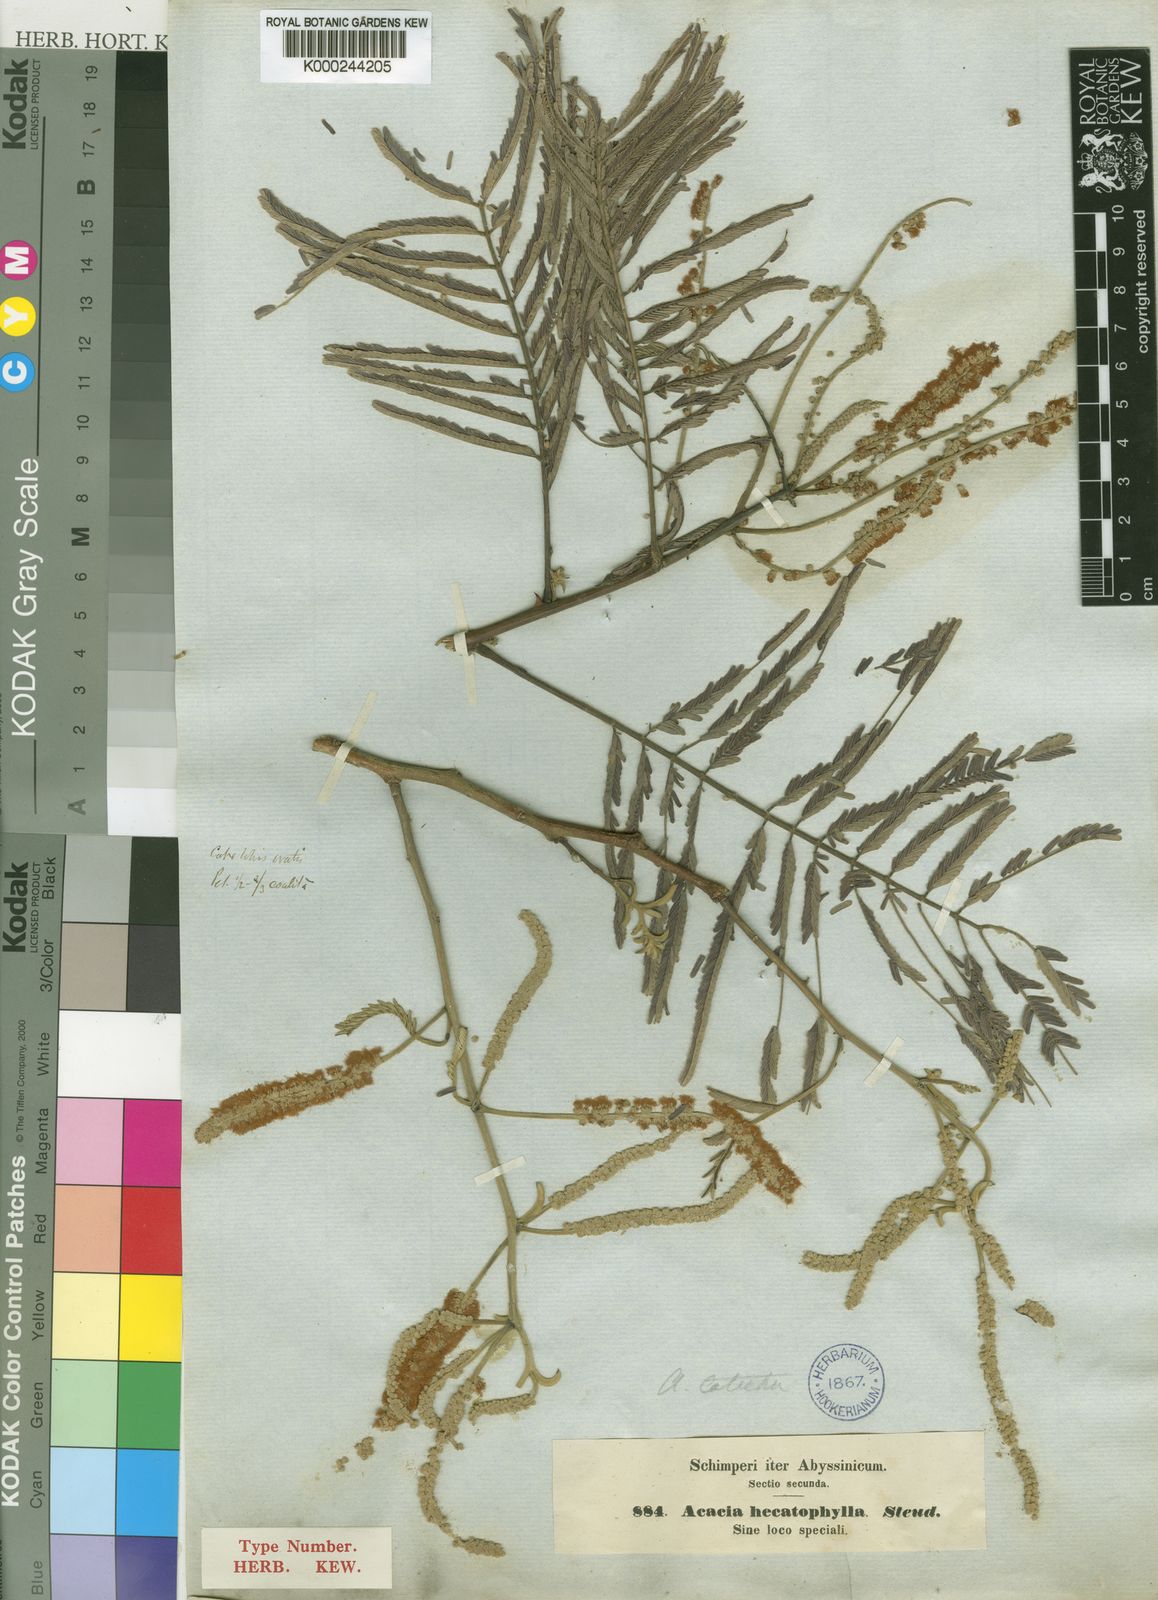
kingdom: Plantae
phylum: Tracheophyta
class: Magnoliopsida
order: Fabales
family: Fabaceae
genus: Senegalia
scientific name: Senegalia hecatophylla
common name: Long pod
